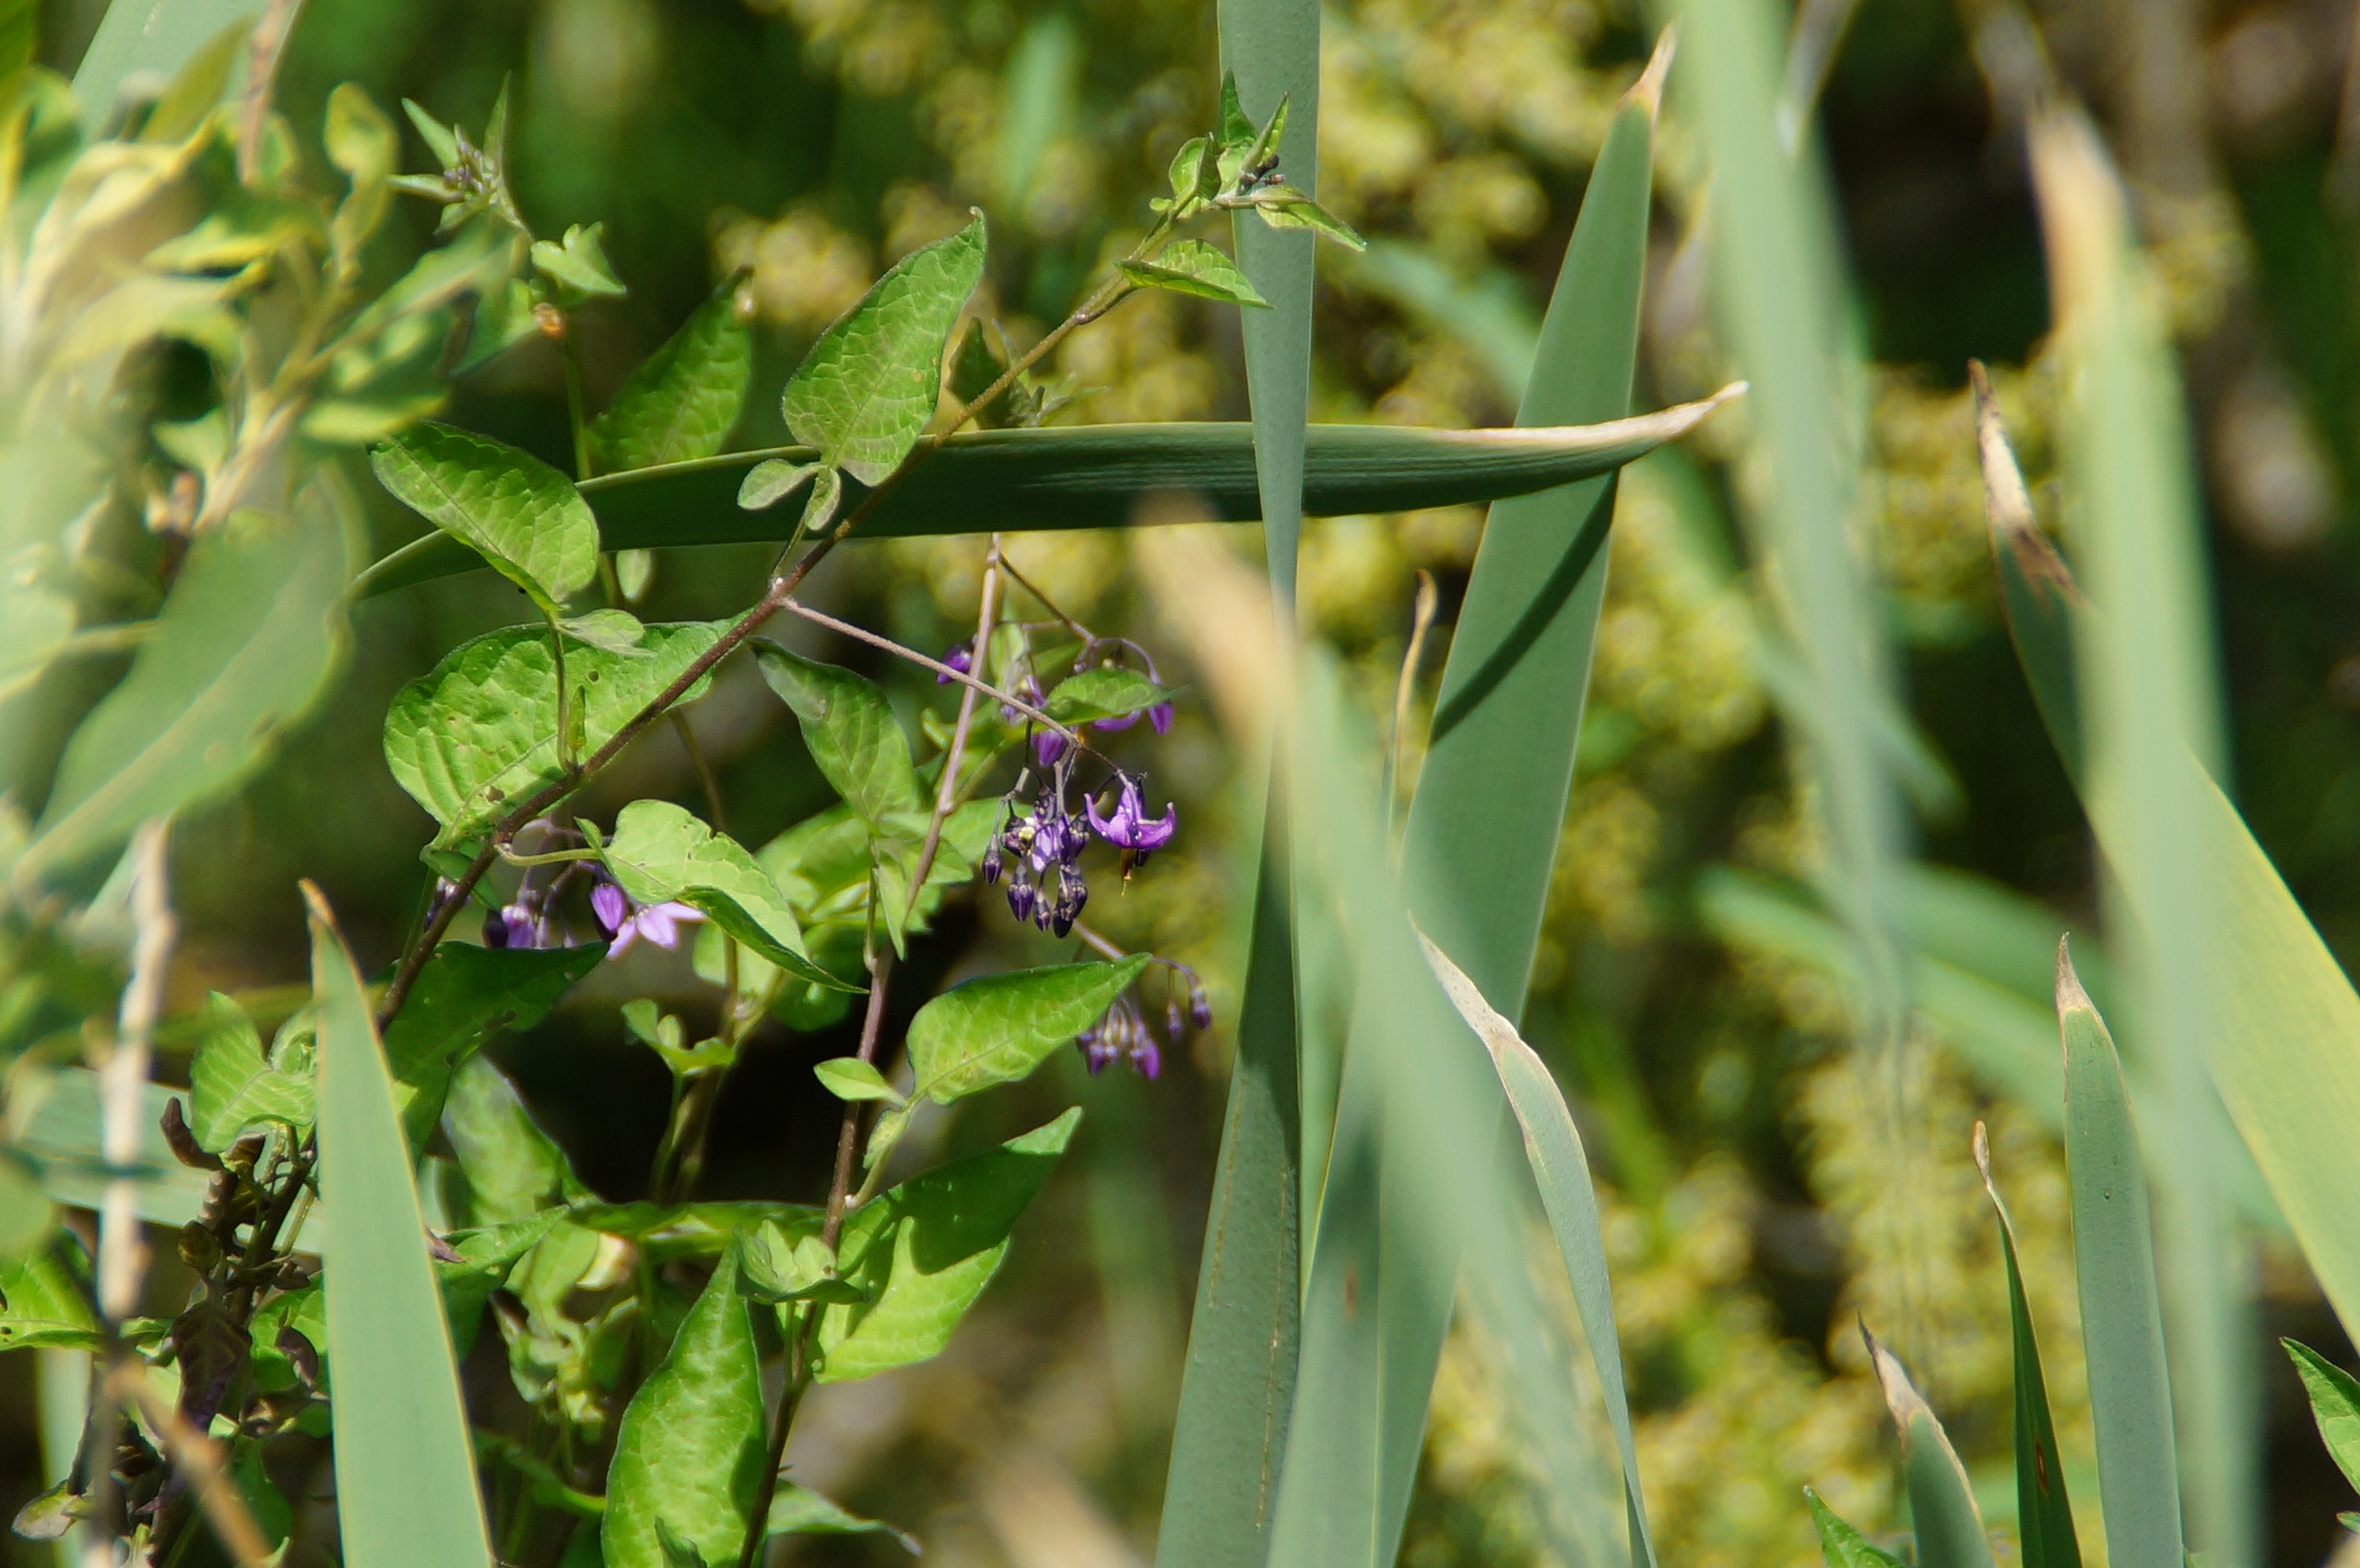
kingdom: Plantae
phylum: Tracheophyta
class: Magnoliopsida
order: Solanales
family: Solanaceae
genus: Solanum
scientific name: Solanum dulcamara
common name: Bittersød natskygge
